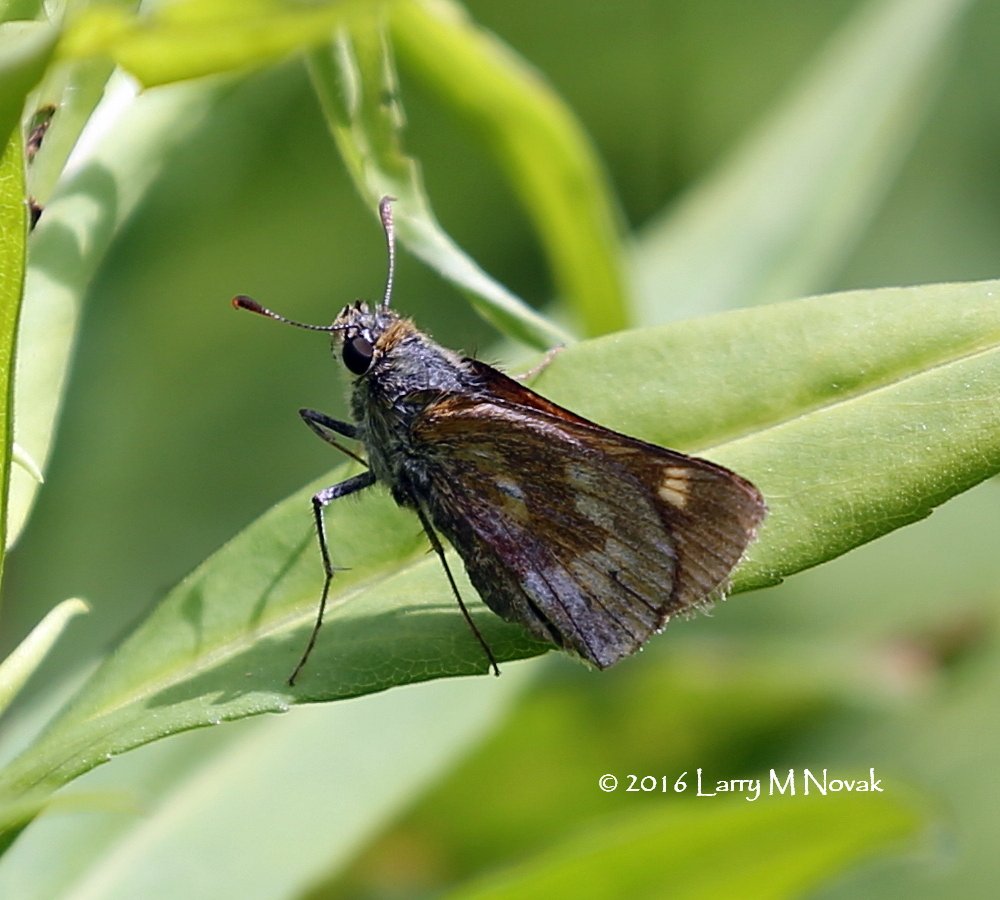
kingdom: Animalia
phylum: Arthropoda
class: Insecta
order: Lepidoptera
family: Hesperiidae
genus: Polites
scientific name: Polites
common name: Long Dash Skipper
